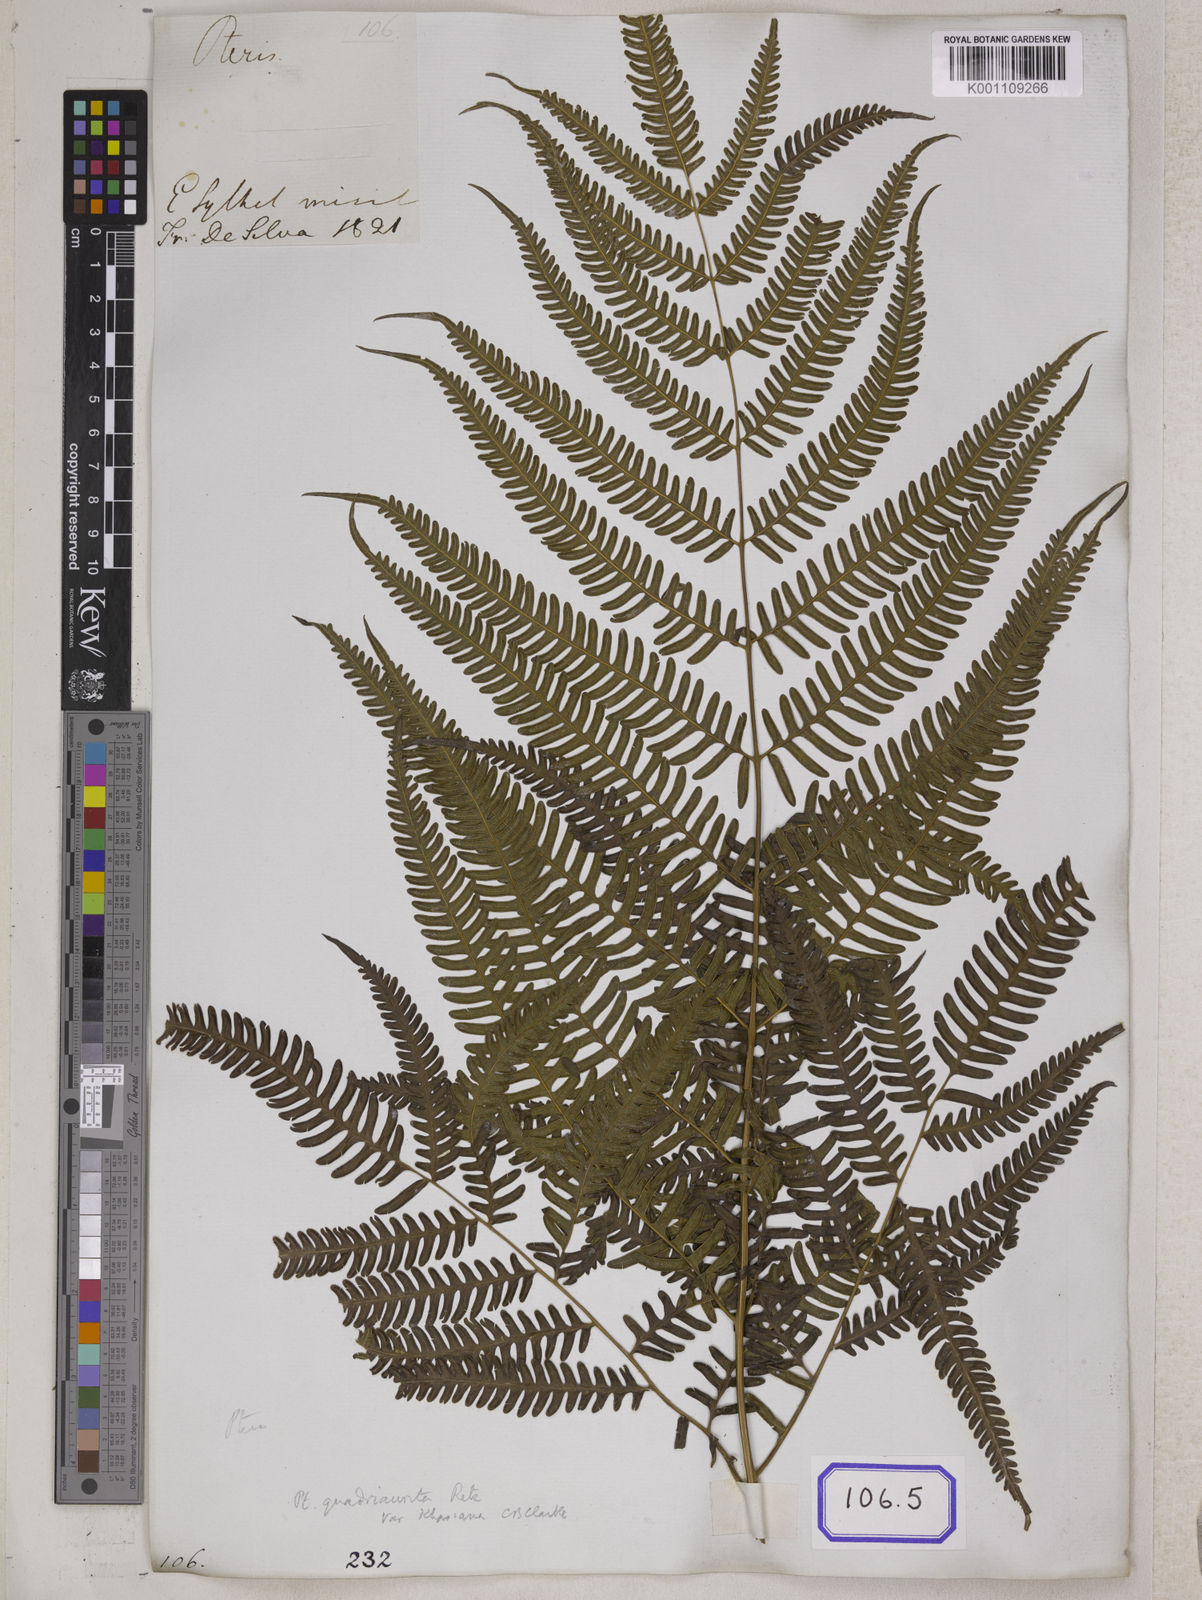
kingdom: Plantae
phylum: Tracheophyta
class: Polypodiopsida
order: Polypodiales
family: Pteridaceae
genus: Pteris
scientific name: Pteris linearis
